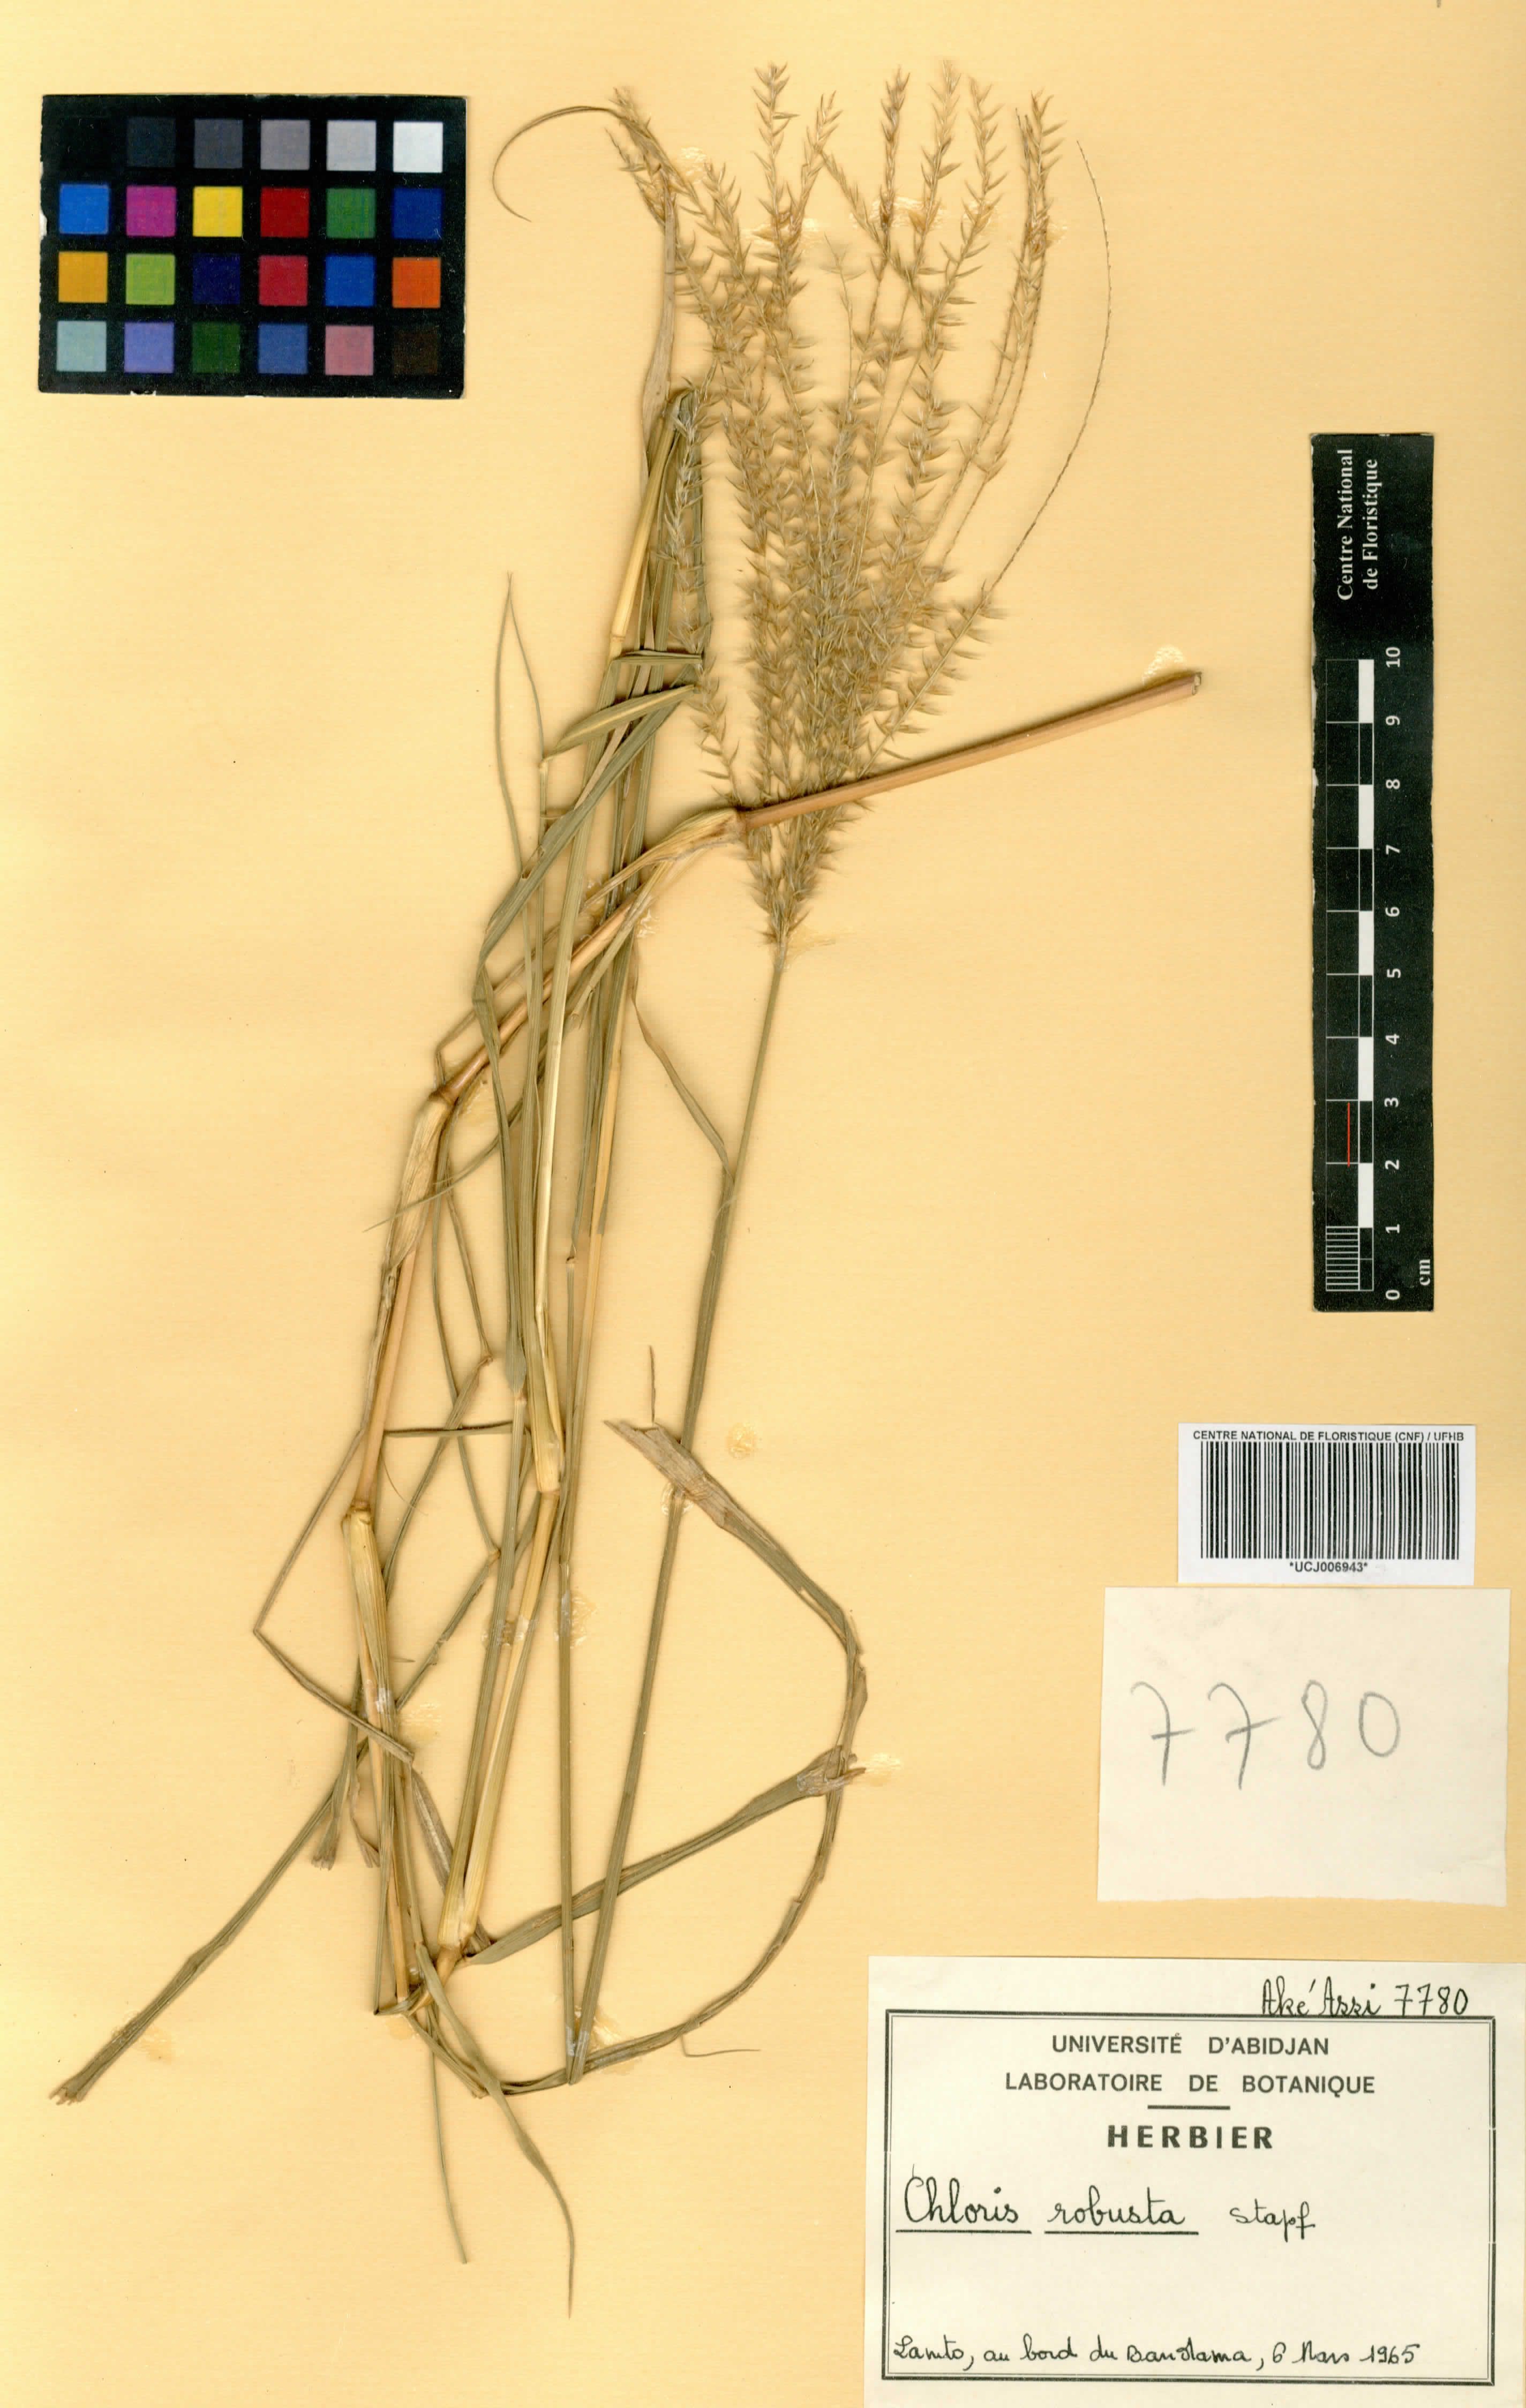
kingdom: Plantae
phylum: Tracheophyta
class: Liliopsida
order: Poales
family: Poaceae
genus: Chloris
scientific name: Chloris robusta
